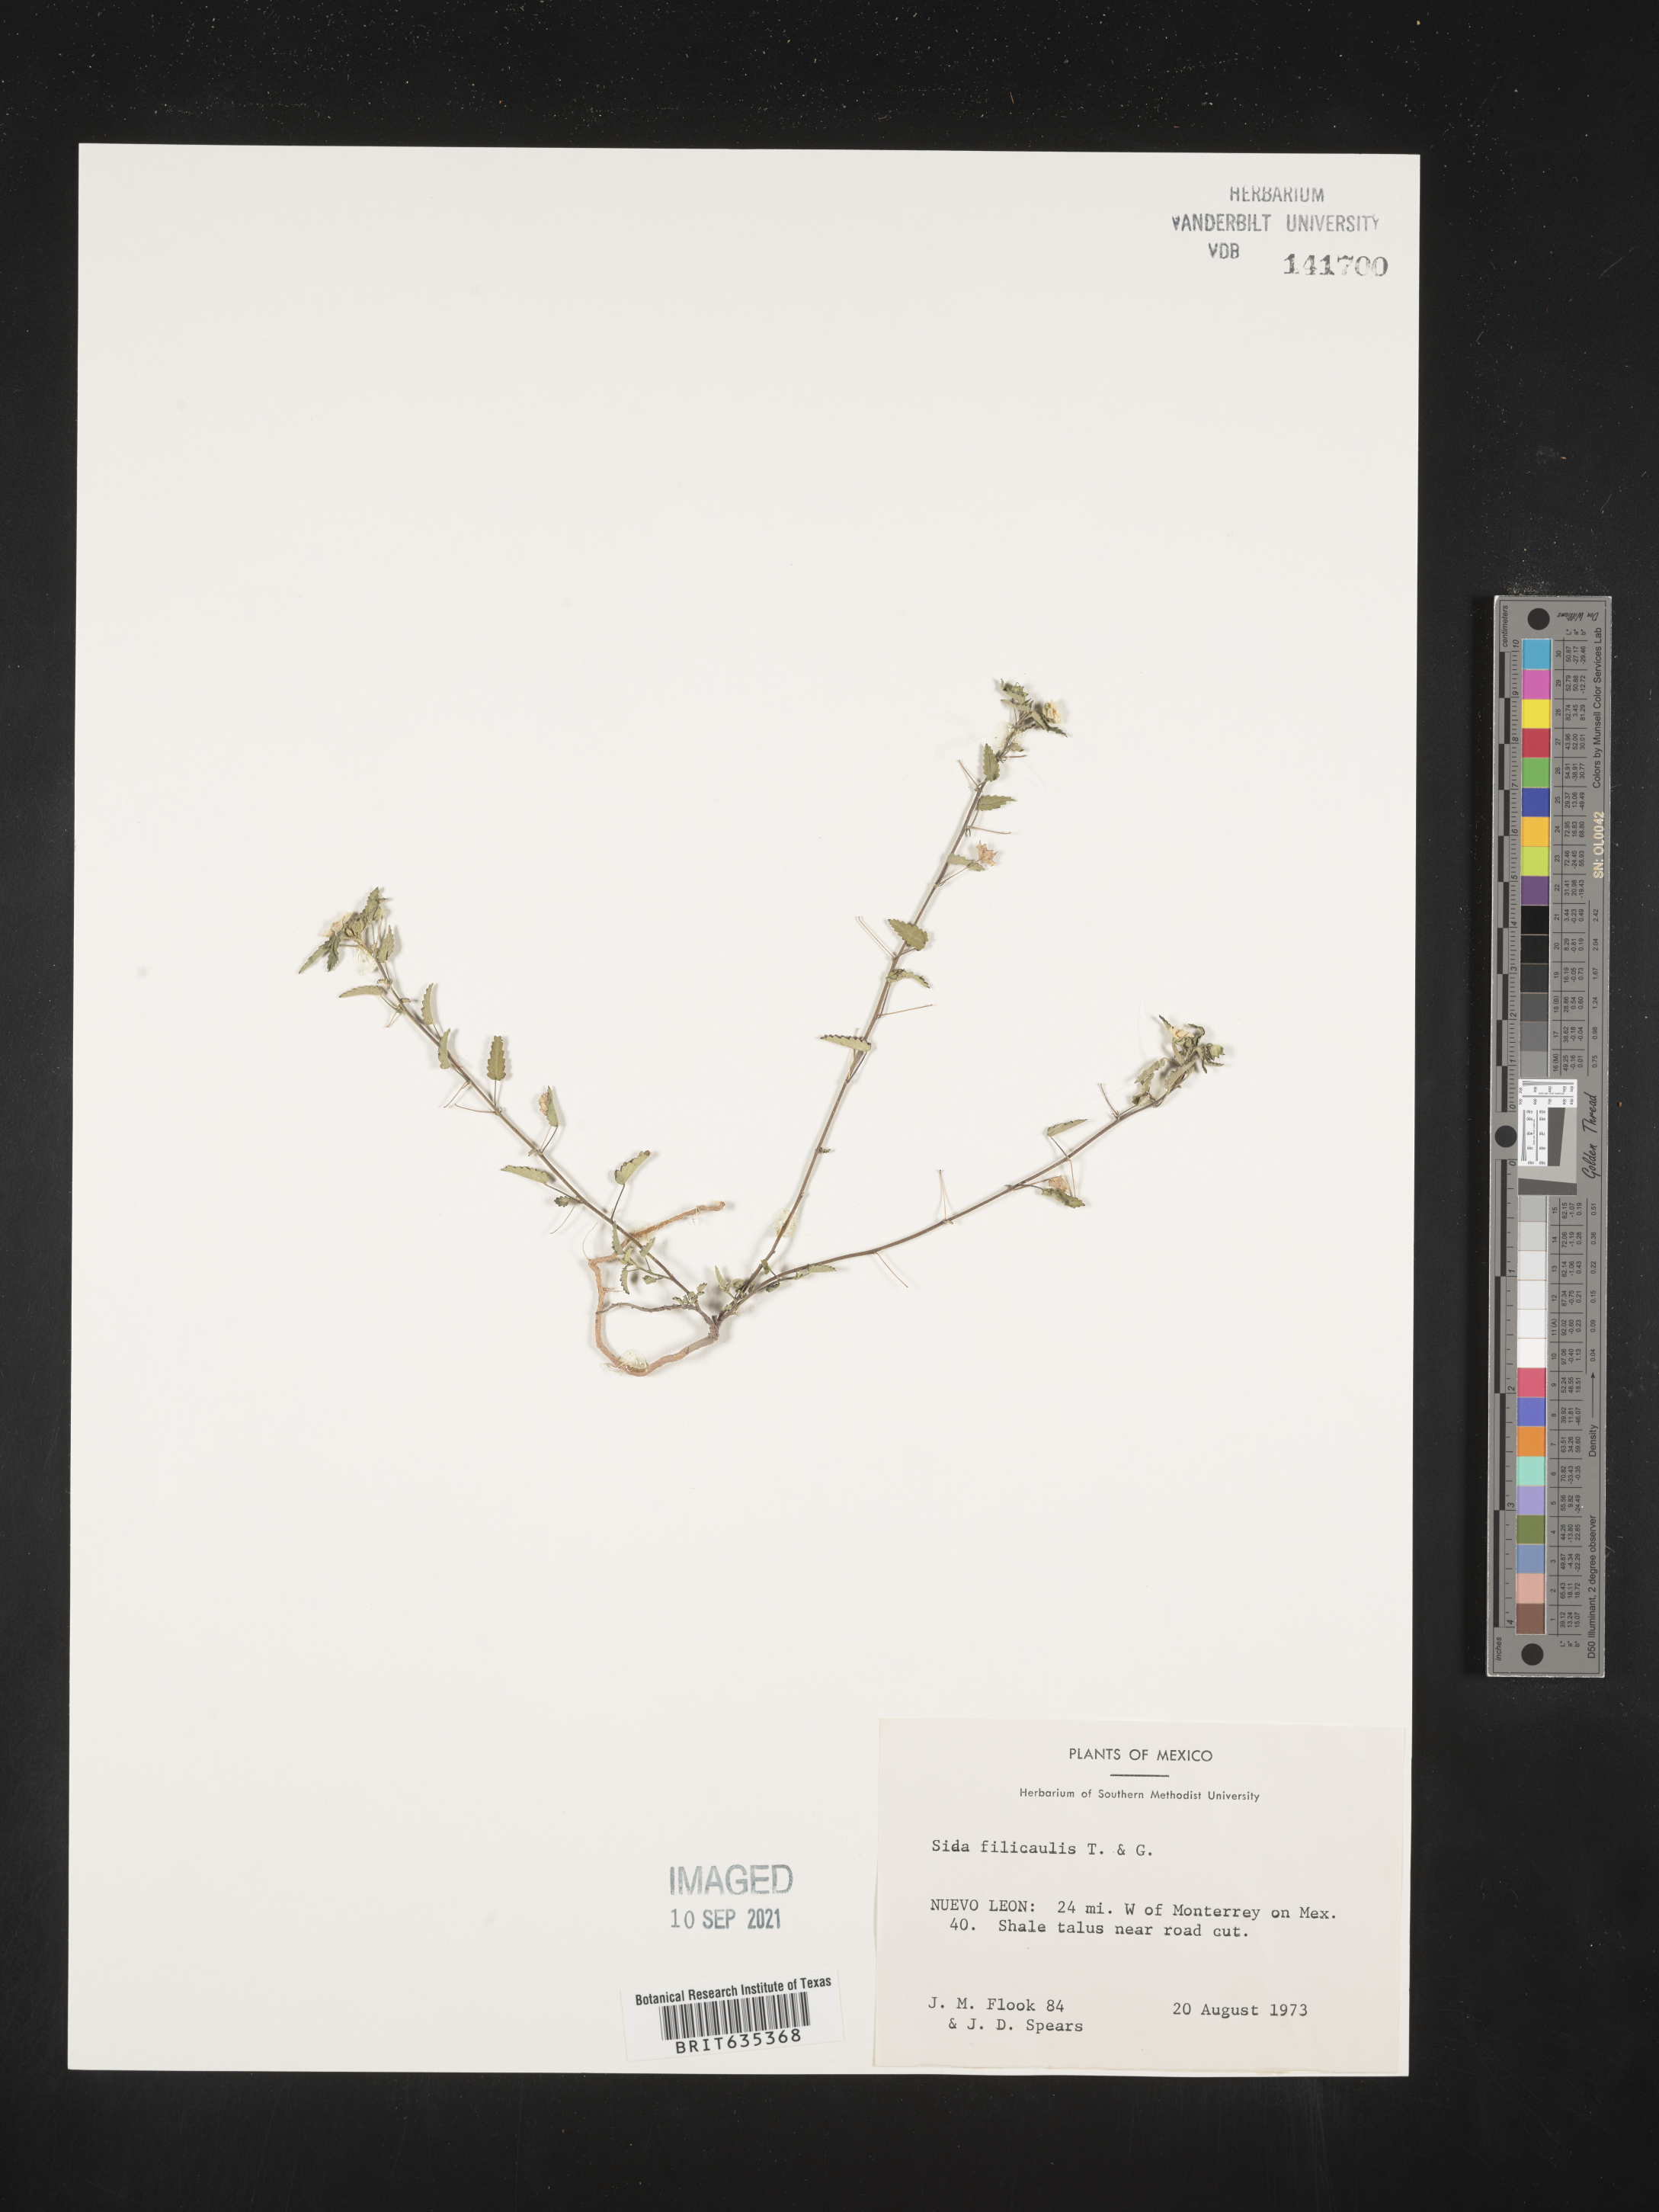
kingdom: Plantae
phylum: Tracheophyta
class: Magnoliopsida
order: Malvales
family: Malvaceae
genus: Sida
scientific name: Sida
